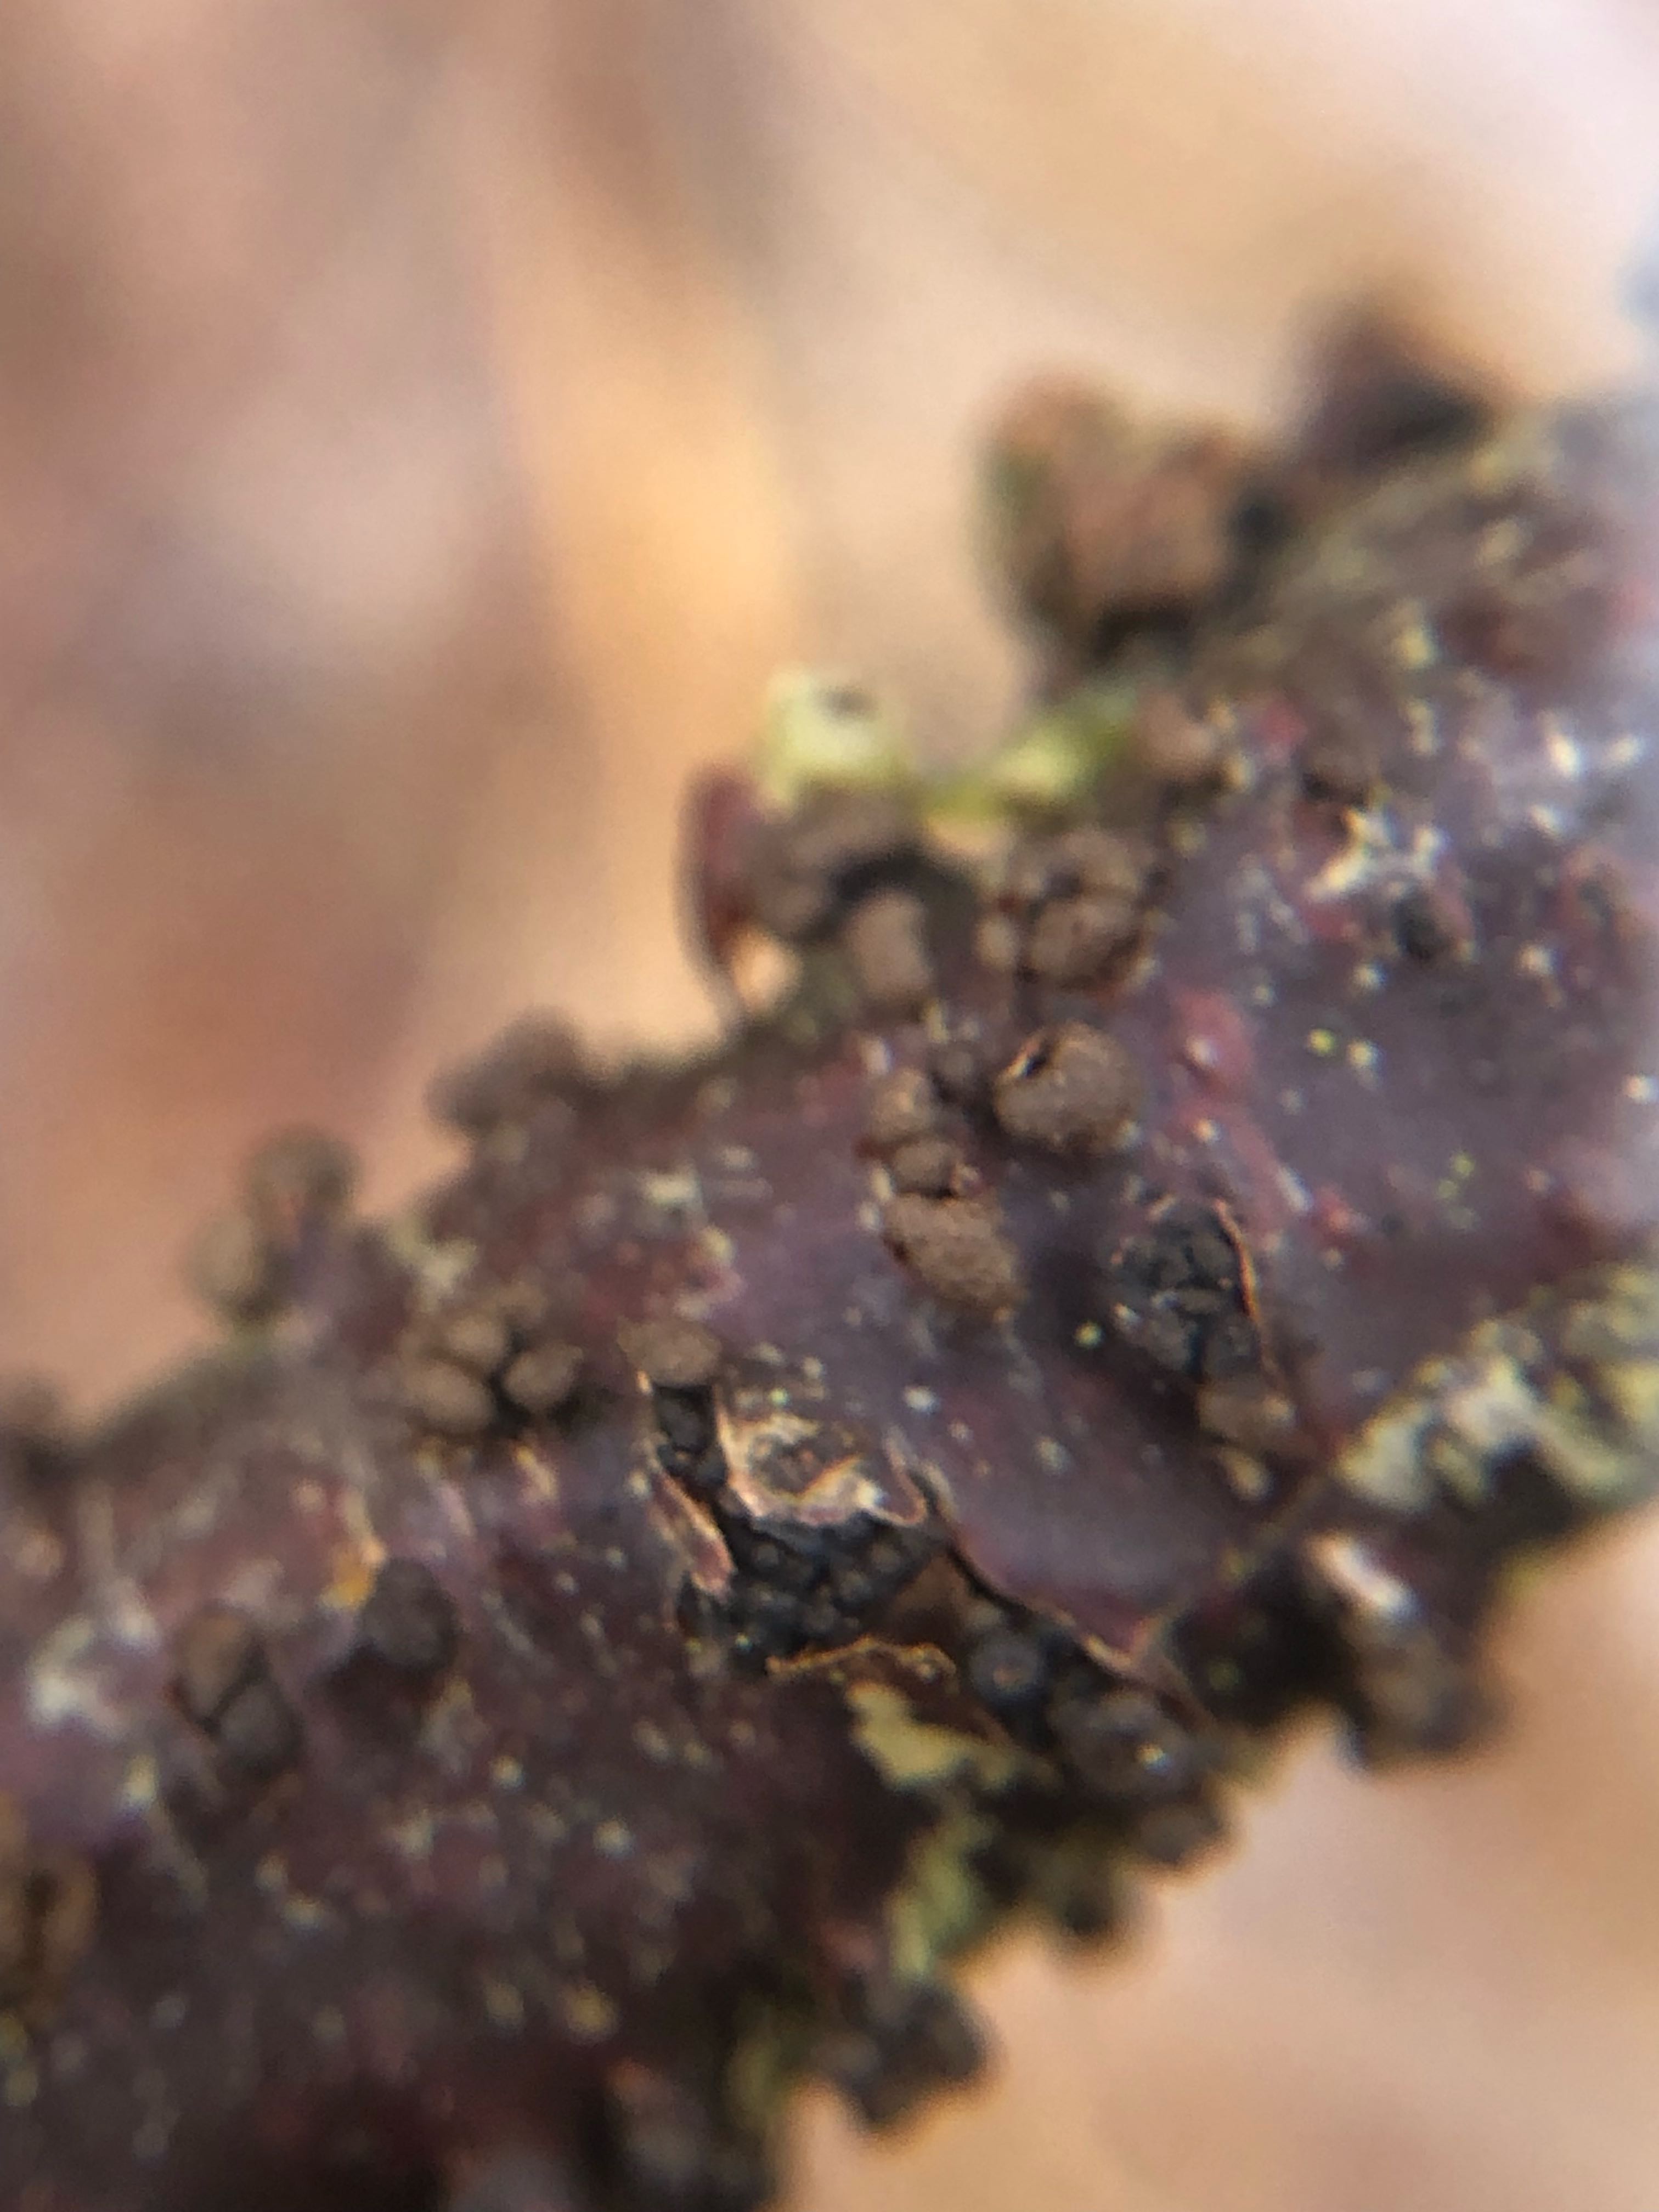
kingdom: Fungi
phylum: Ascomycota
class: Leotiomycetes
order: Helotiales
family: Godroniaceae
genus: Godronia
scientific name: Godronia ribis
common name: ribs-urneskive
